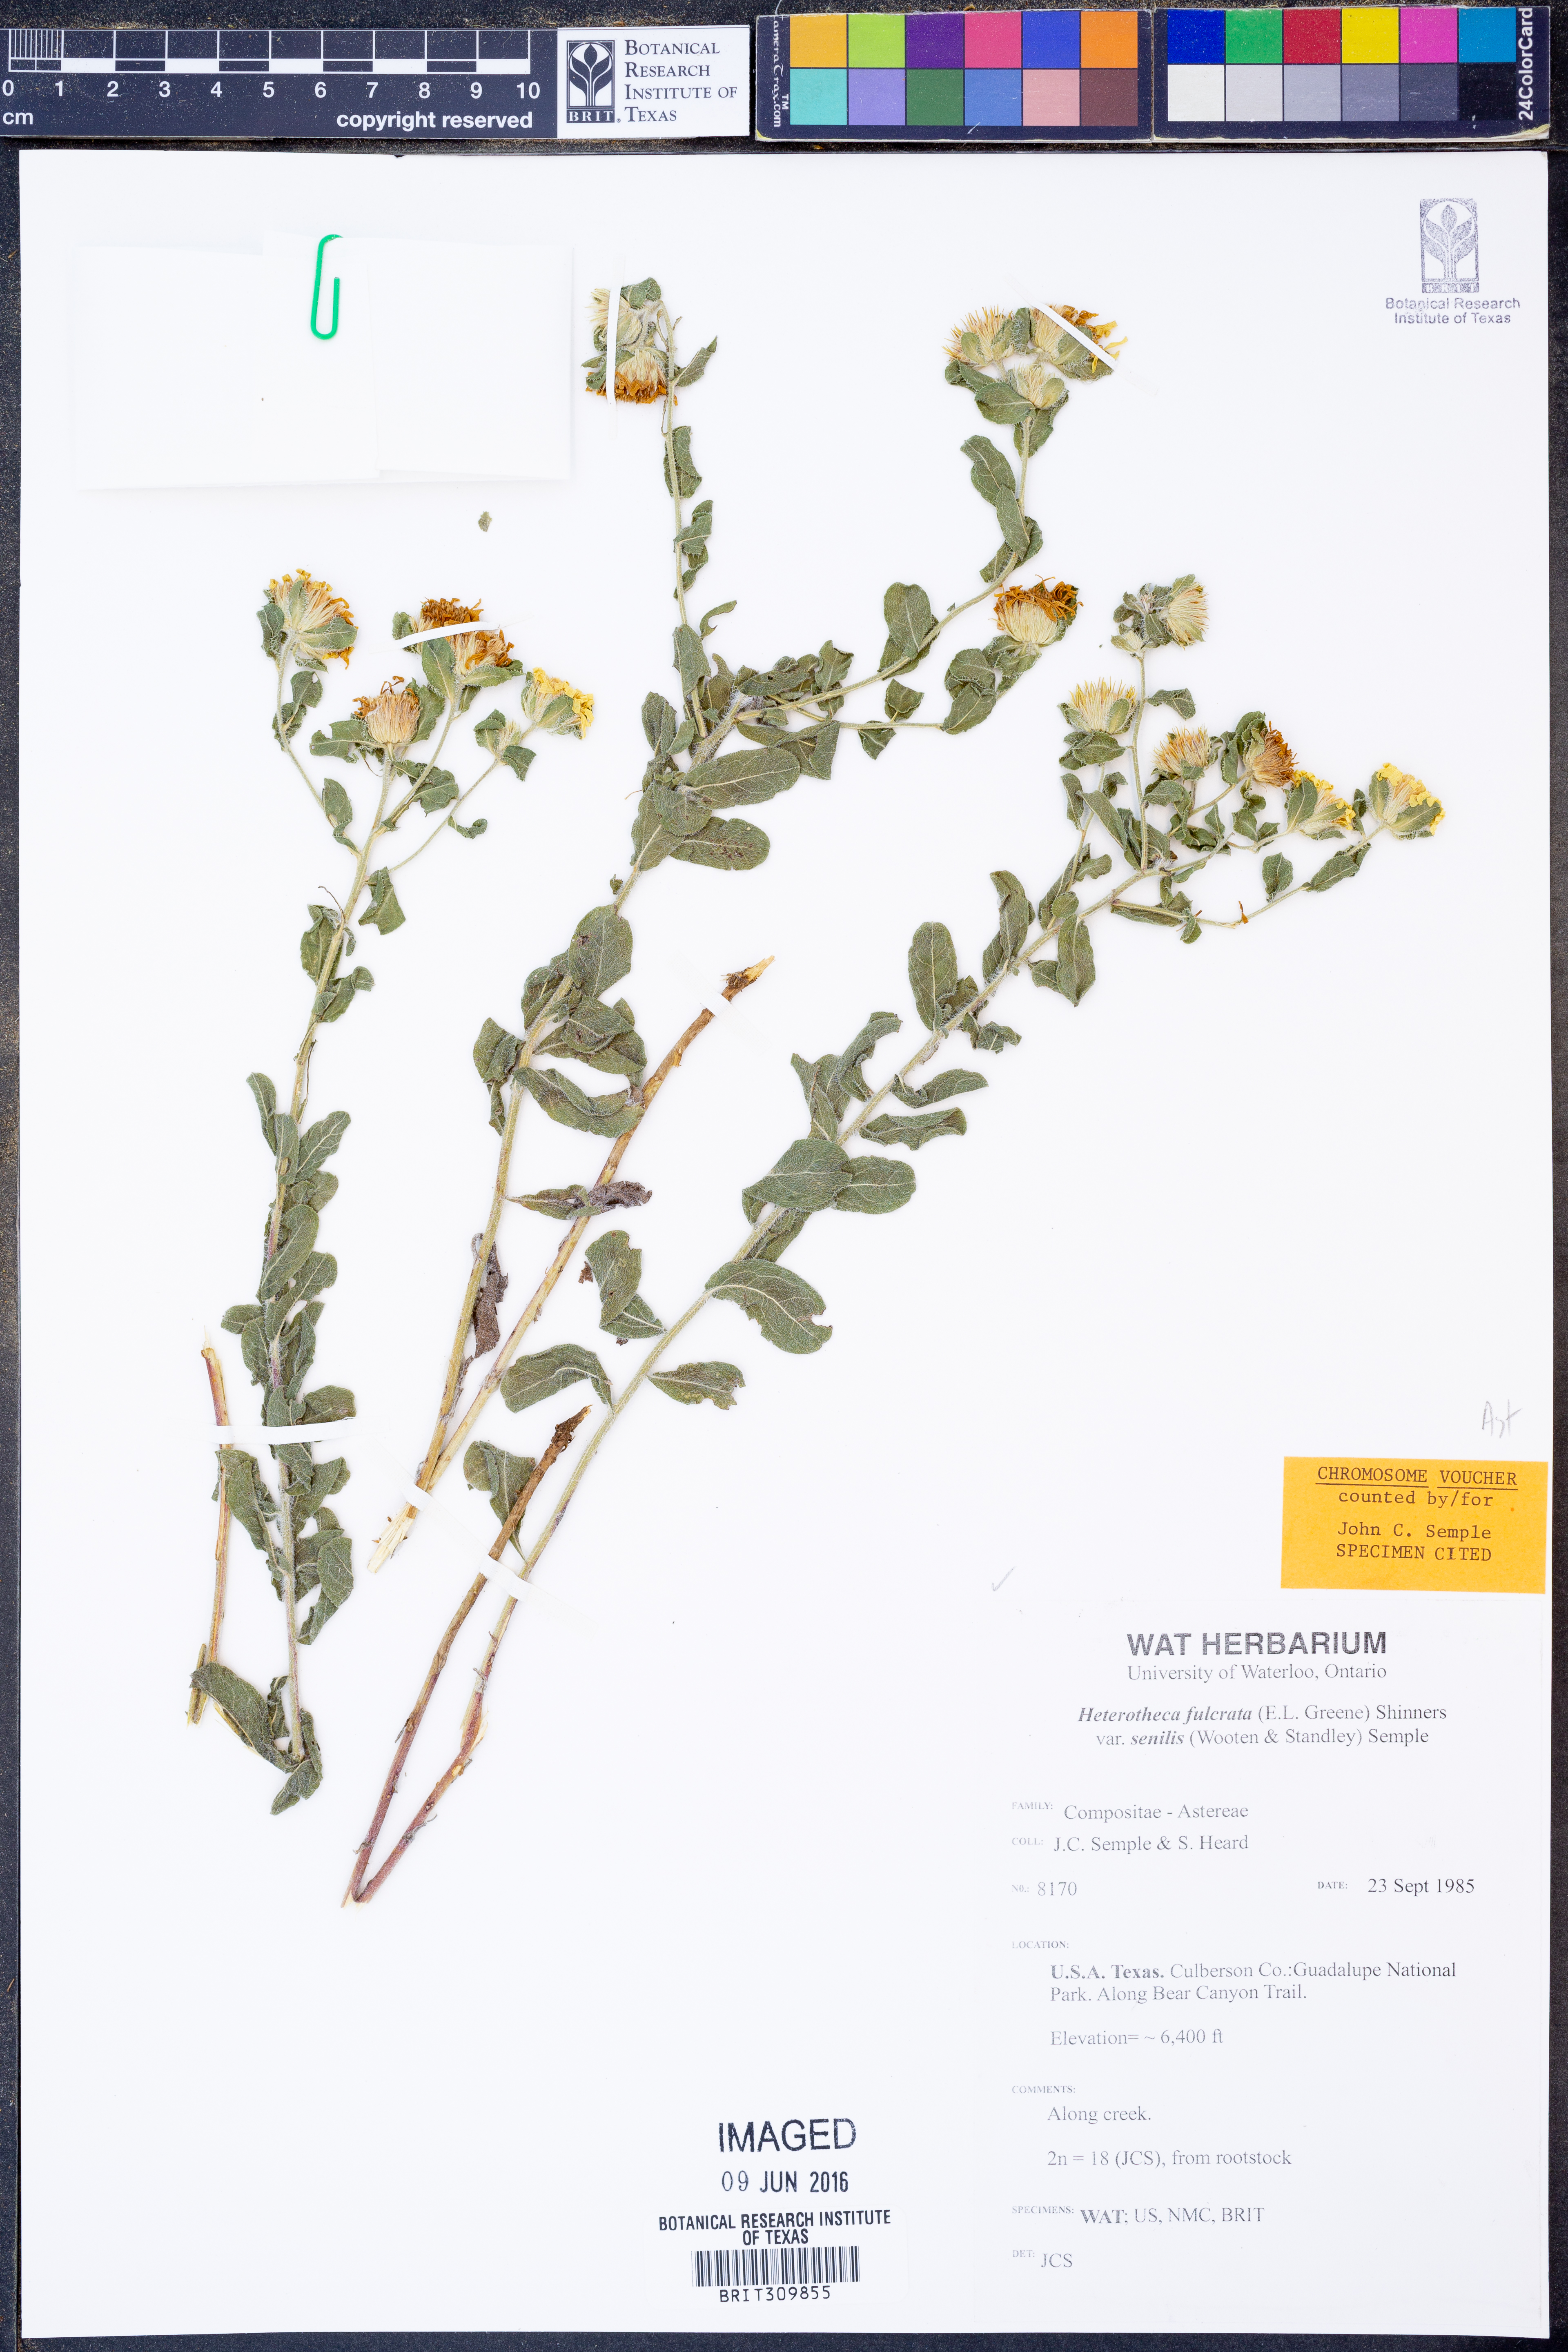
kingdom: Plantae
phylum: Tracheophyta
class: Magnoliopsida
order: Asterales
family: Asteraceae
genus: Heterotheca
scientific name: Heterotheca fulcrata
